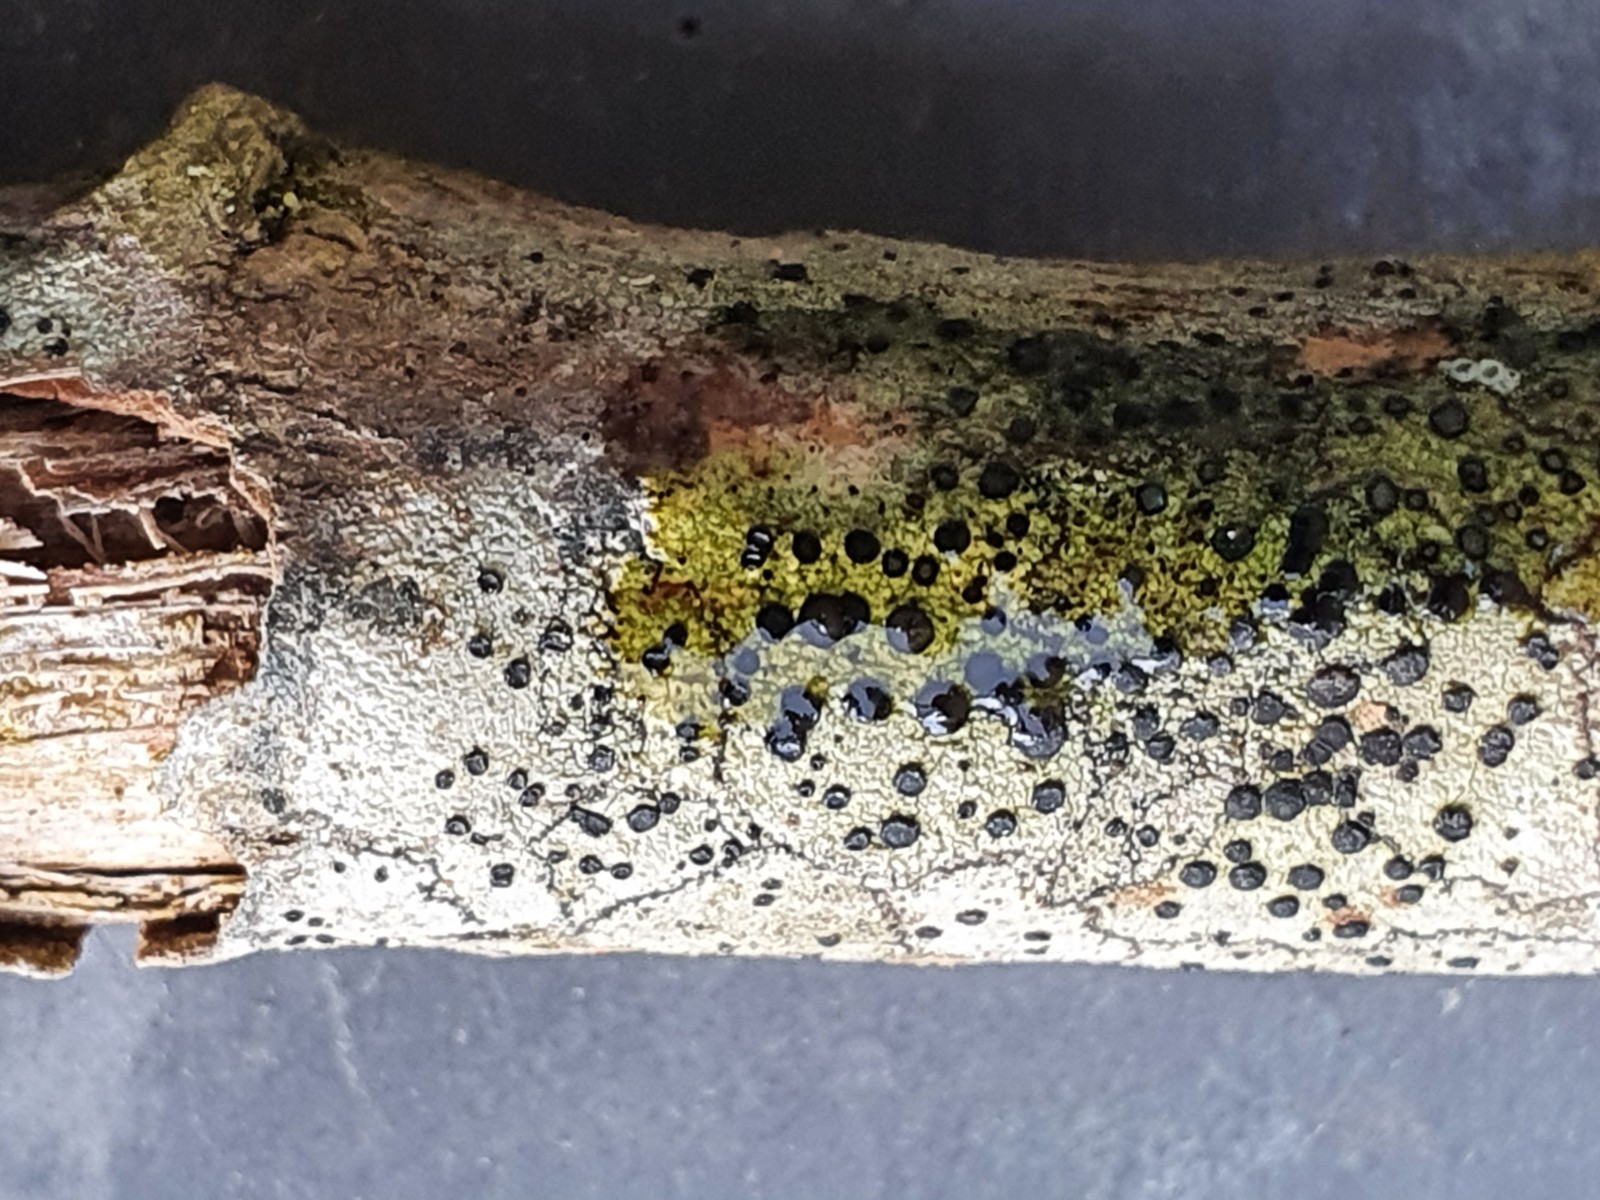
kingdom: Fungi
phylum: Ascomycota
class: Lecanoromycetes
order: Lecanorales
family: Lecanoraceae
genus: Lecidella
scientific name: Lecidella elaeochroma
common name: grågrøn skivelav
